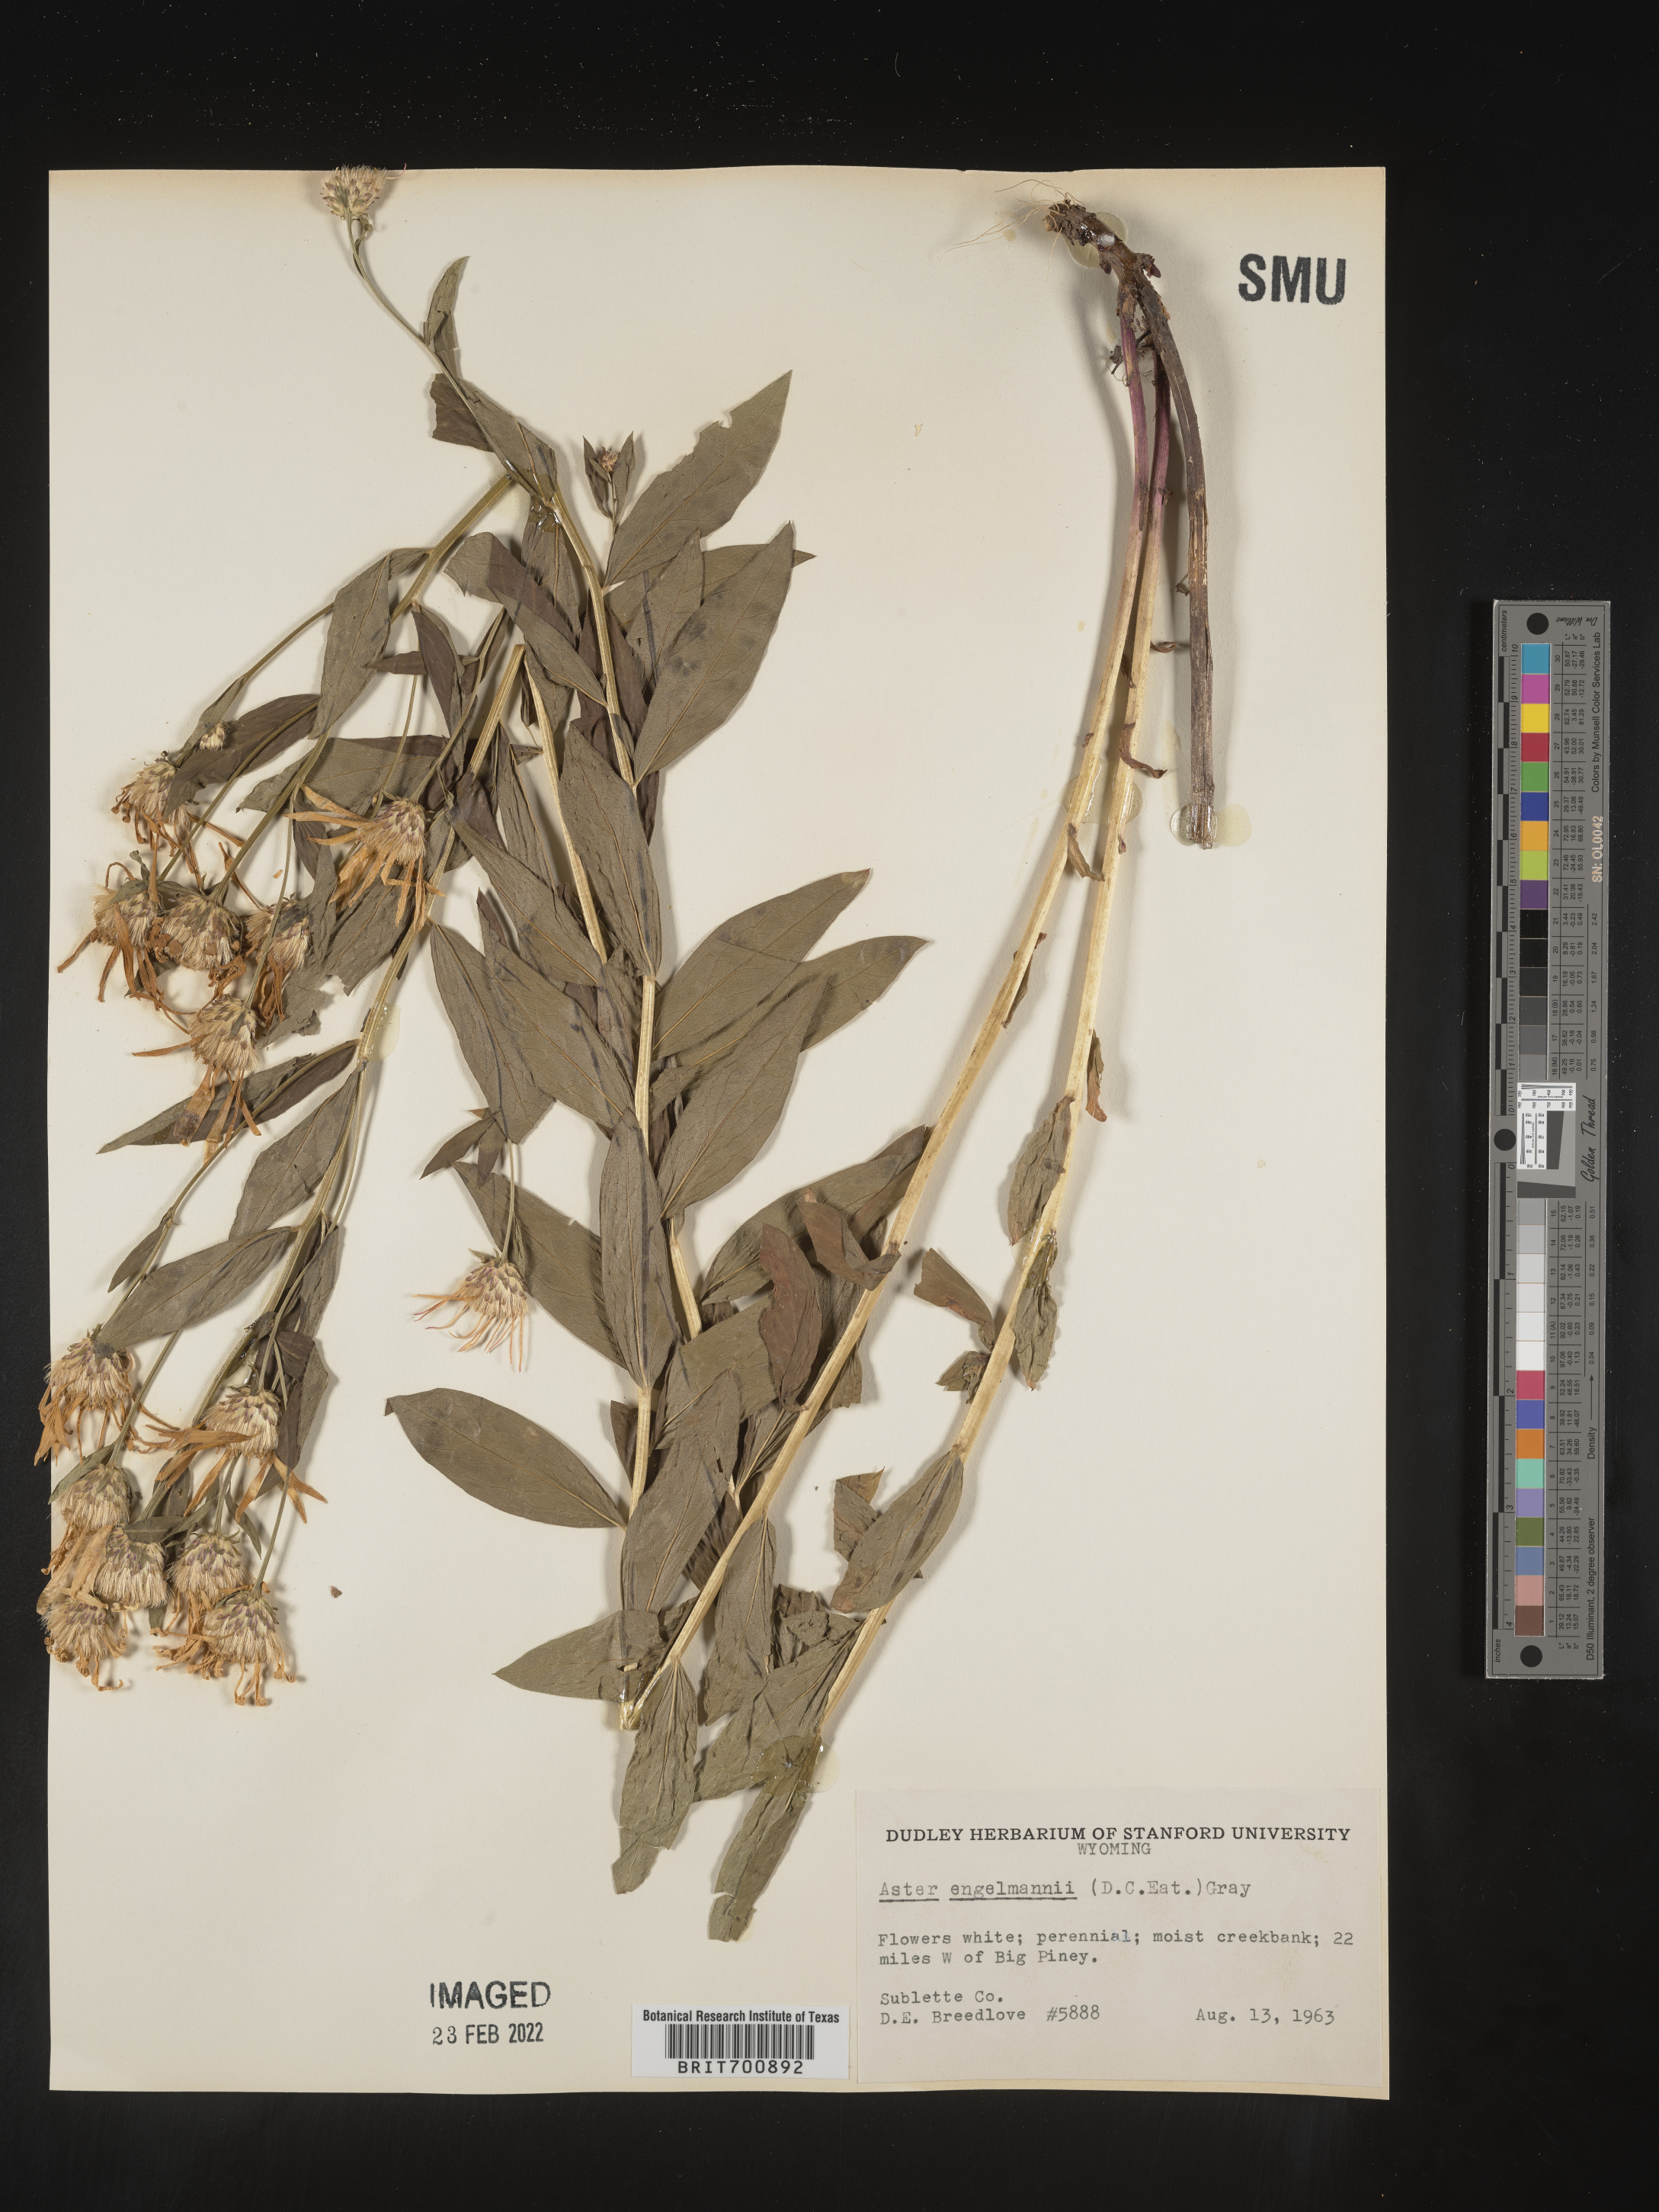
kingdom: Plantae
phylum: Tracheophyta
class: Magnoliopsida
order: Asterales
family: Asteraceae
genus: Eucephalus
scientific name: Eucephalus engelmannii
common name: Engelmann's aster
